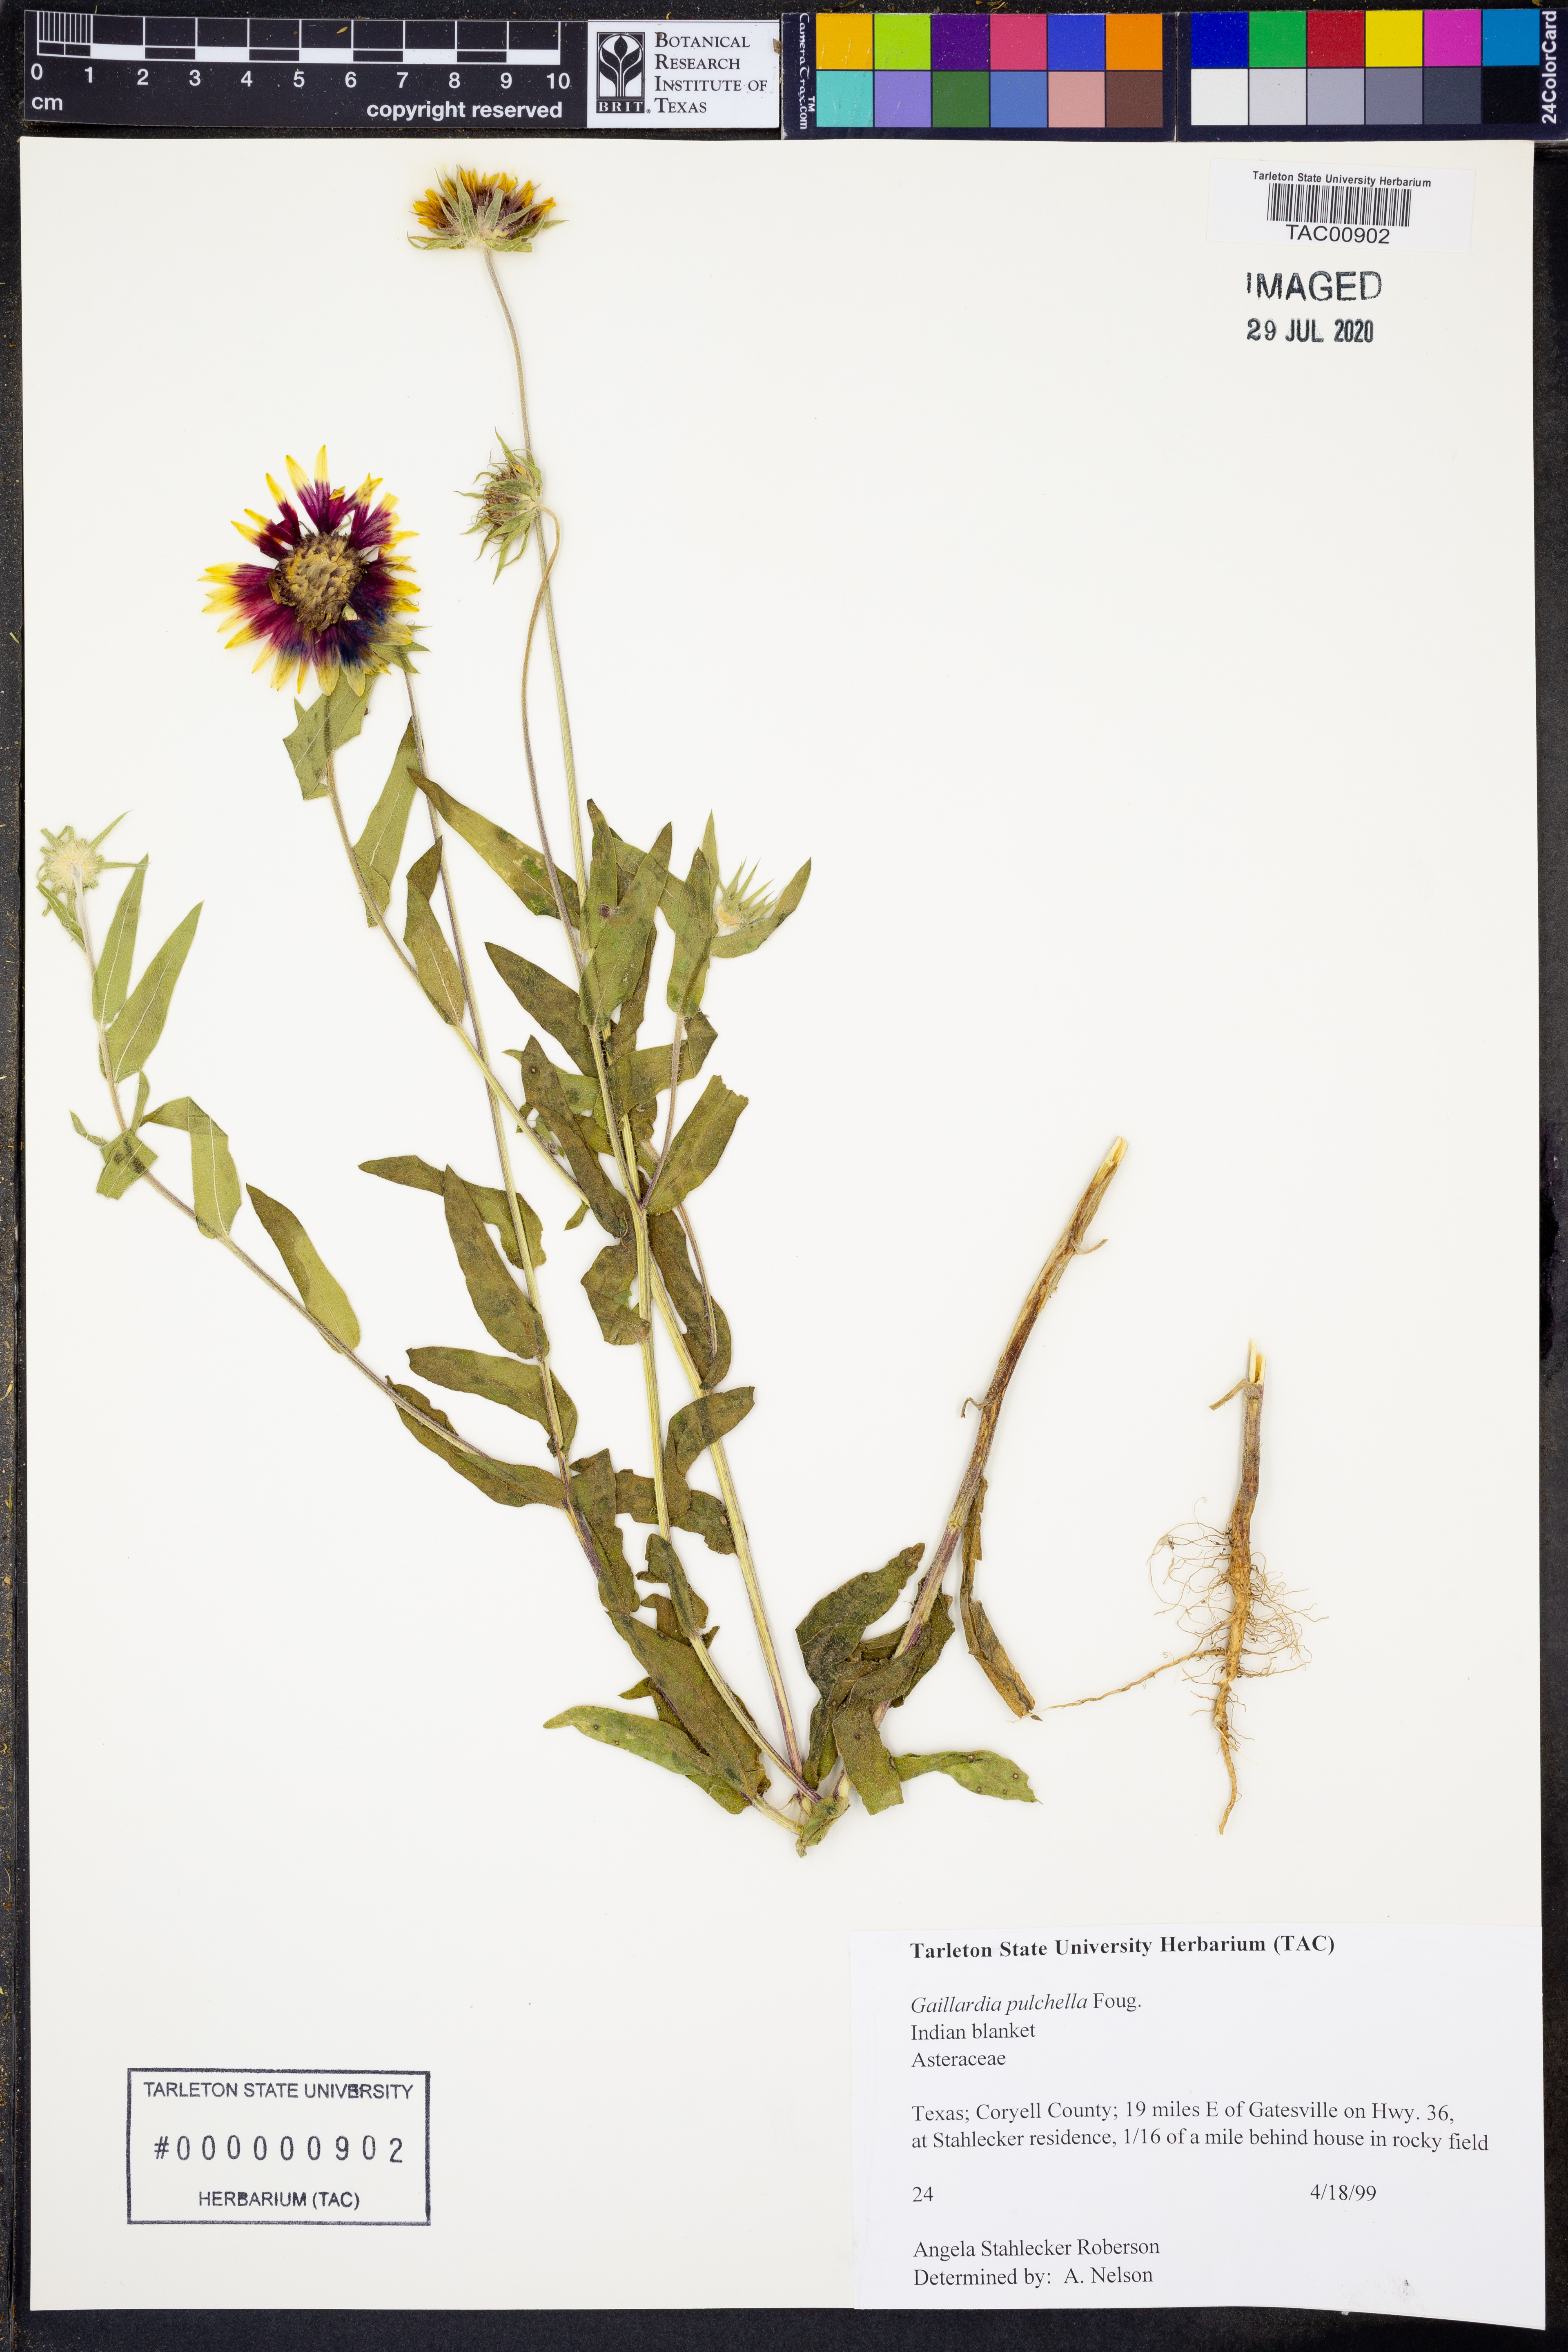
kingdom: Plantae
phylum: Tracheophyta
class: Magnoliopsida
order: Asterales
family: Asteraceae
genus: Gaillardia
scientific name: Gaillardia pulchella
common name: Firewheel
